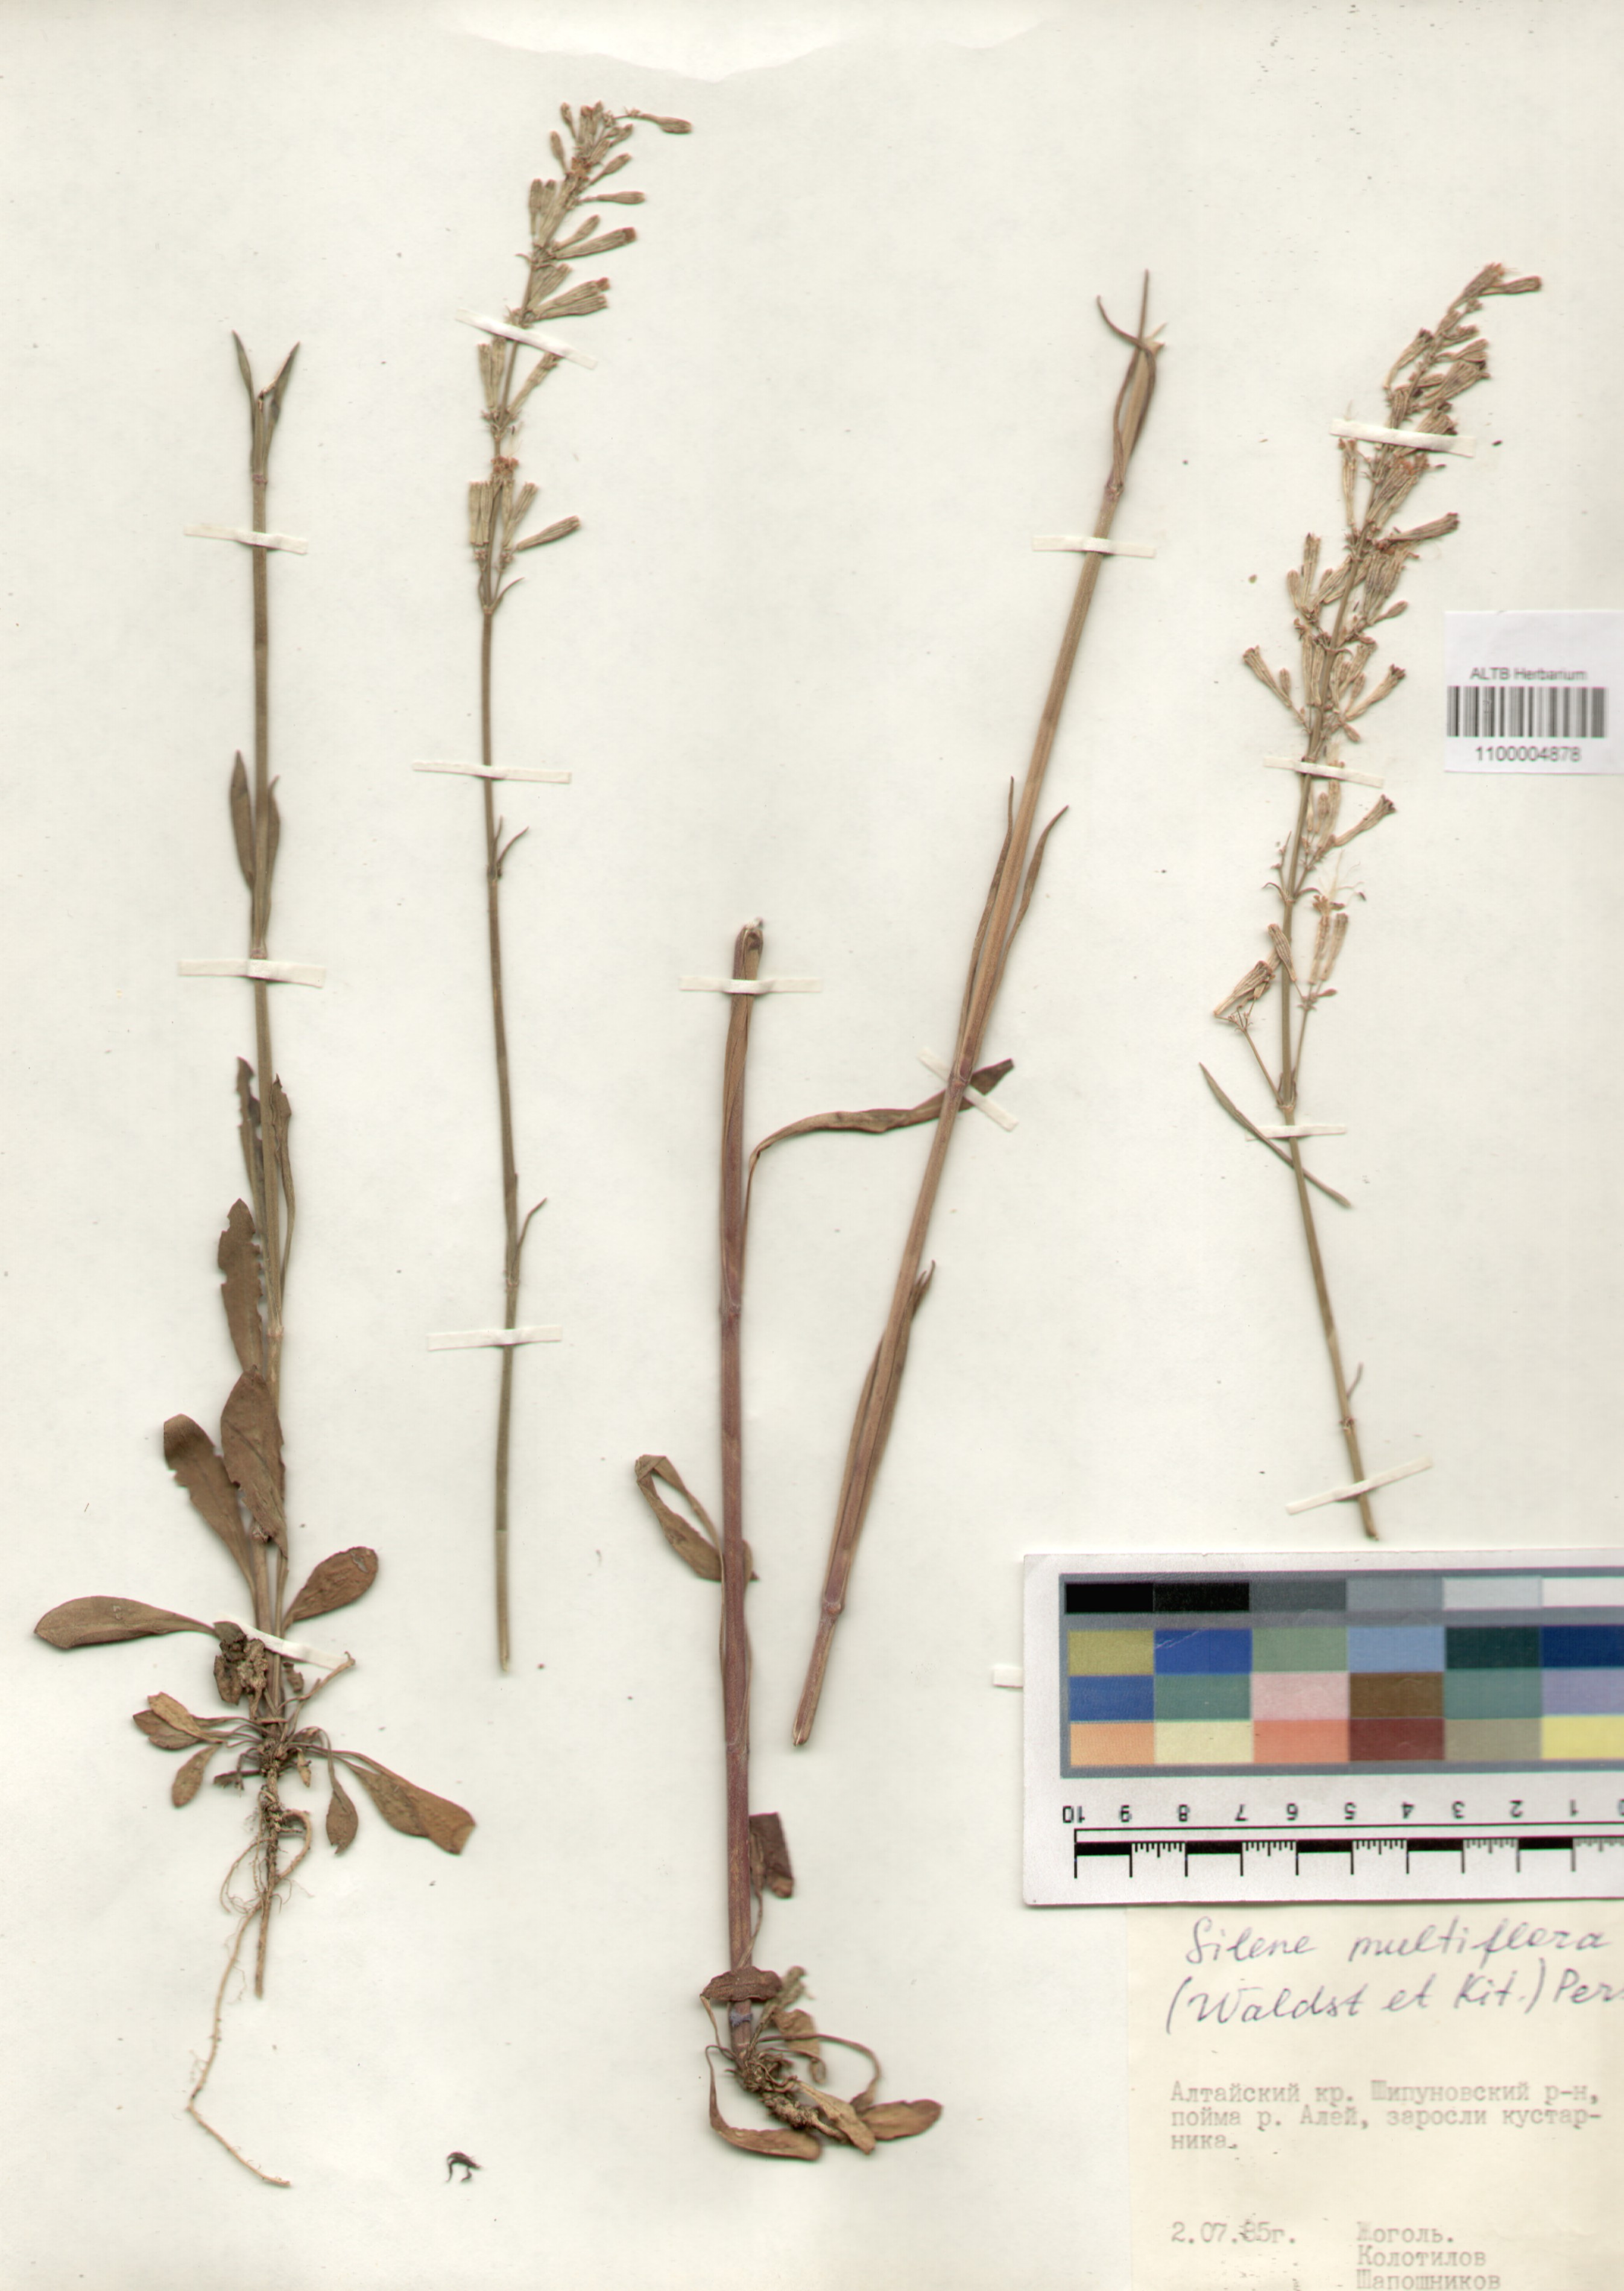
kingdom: Plantae
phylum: Tracheophyta
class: Magnoliopsida
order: Caryophyllales
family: Caryophyllaceae
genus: Silene
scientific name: Silene multiflora
